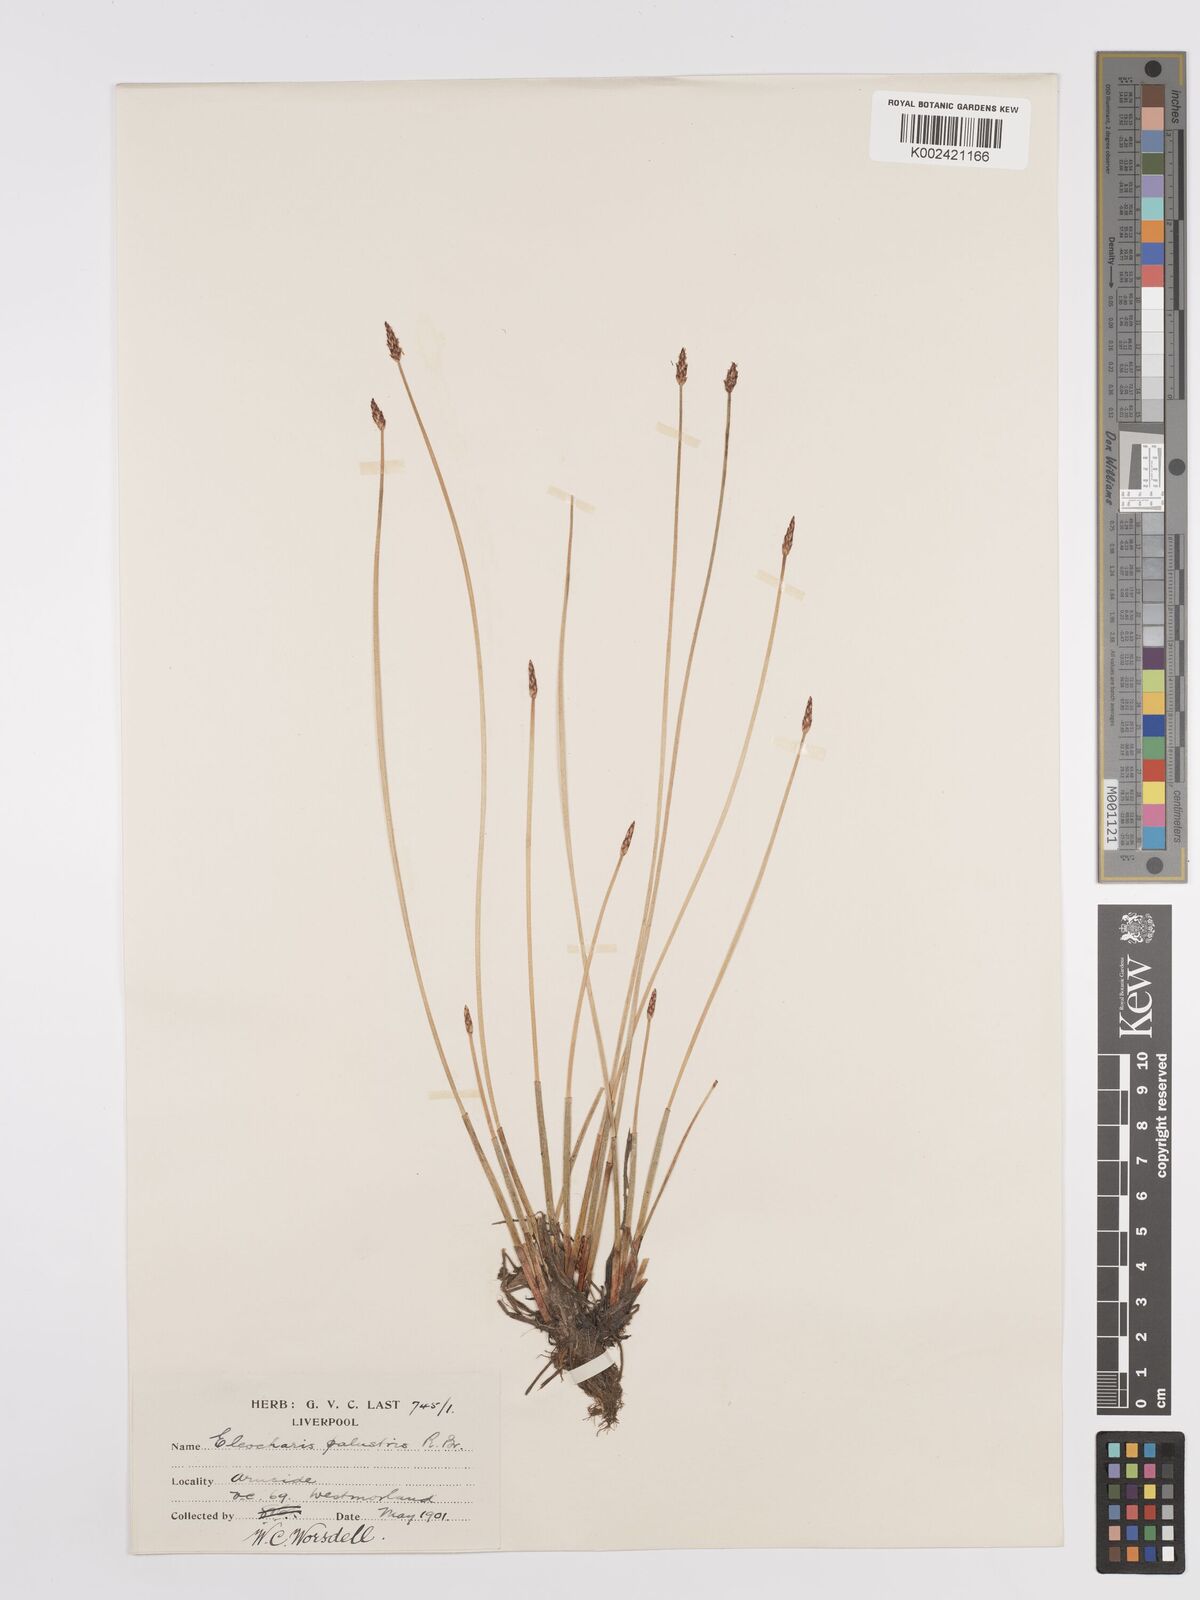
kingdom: Plantae
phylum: Tracheophyta
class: Liliopsida
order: Poales
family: Cyperaceae
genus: Eleocharis
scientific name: Eleocharis palustris
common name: Common spike-rush
